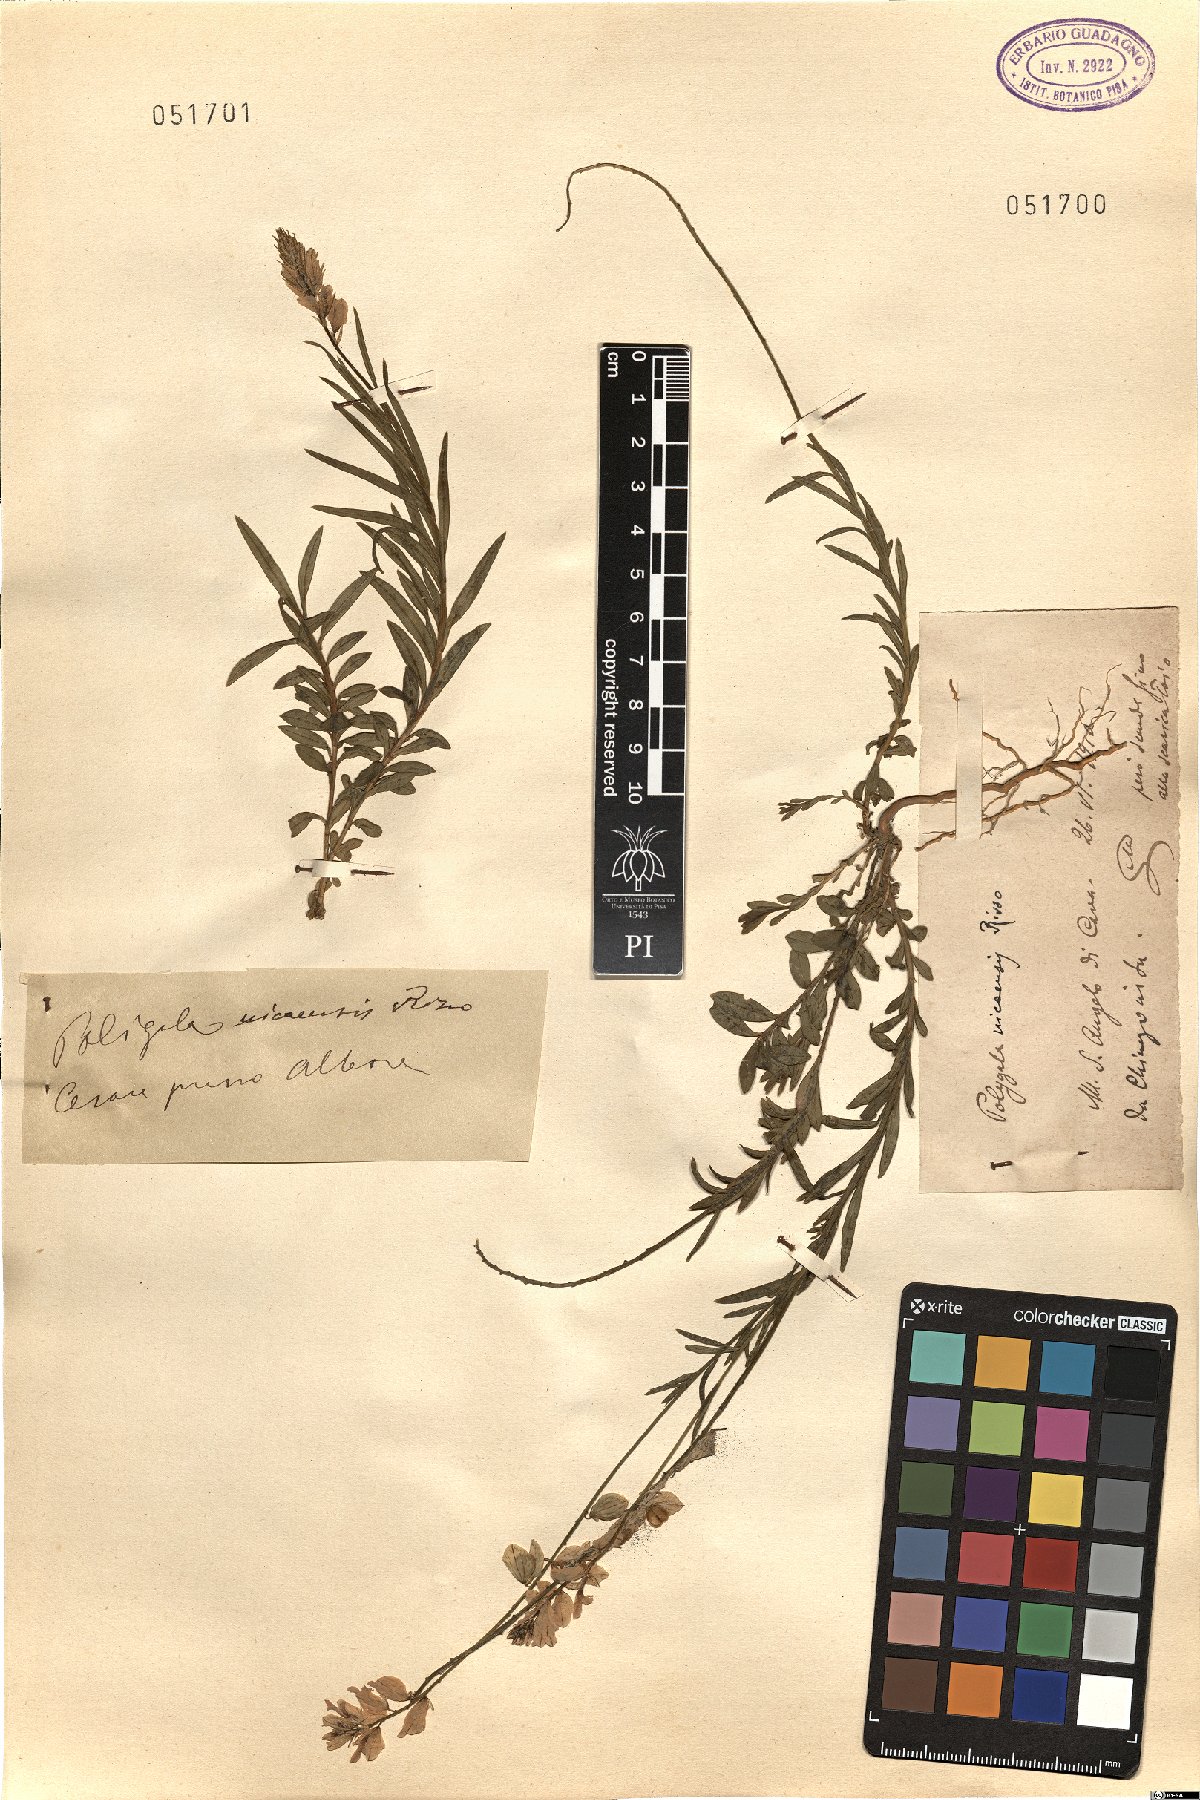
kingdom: Plantae
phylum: Tracheophyta
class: Magnoliopsida
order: Fabales
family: Polygalaceae
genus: Polygala
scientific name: Polygala nicaeensis
